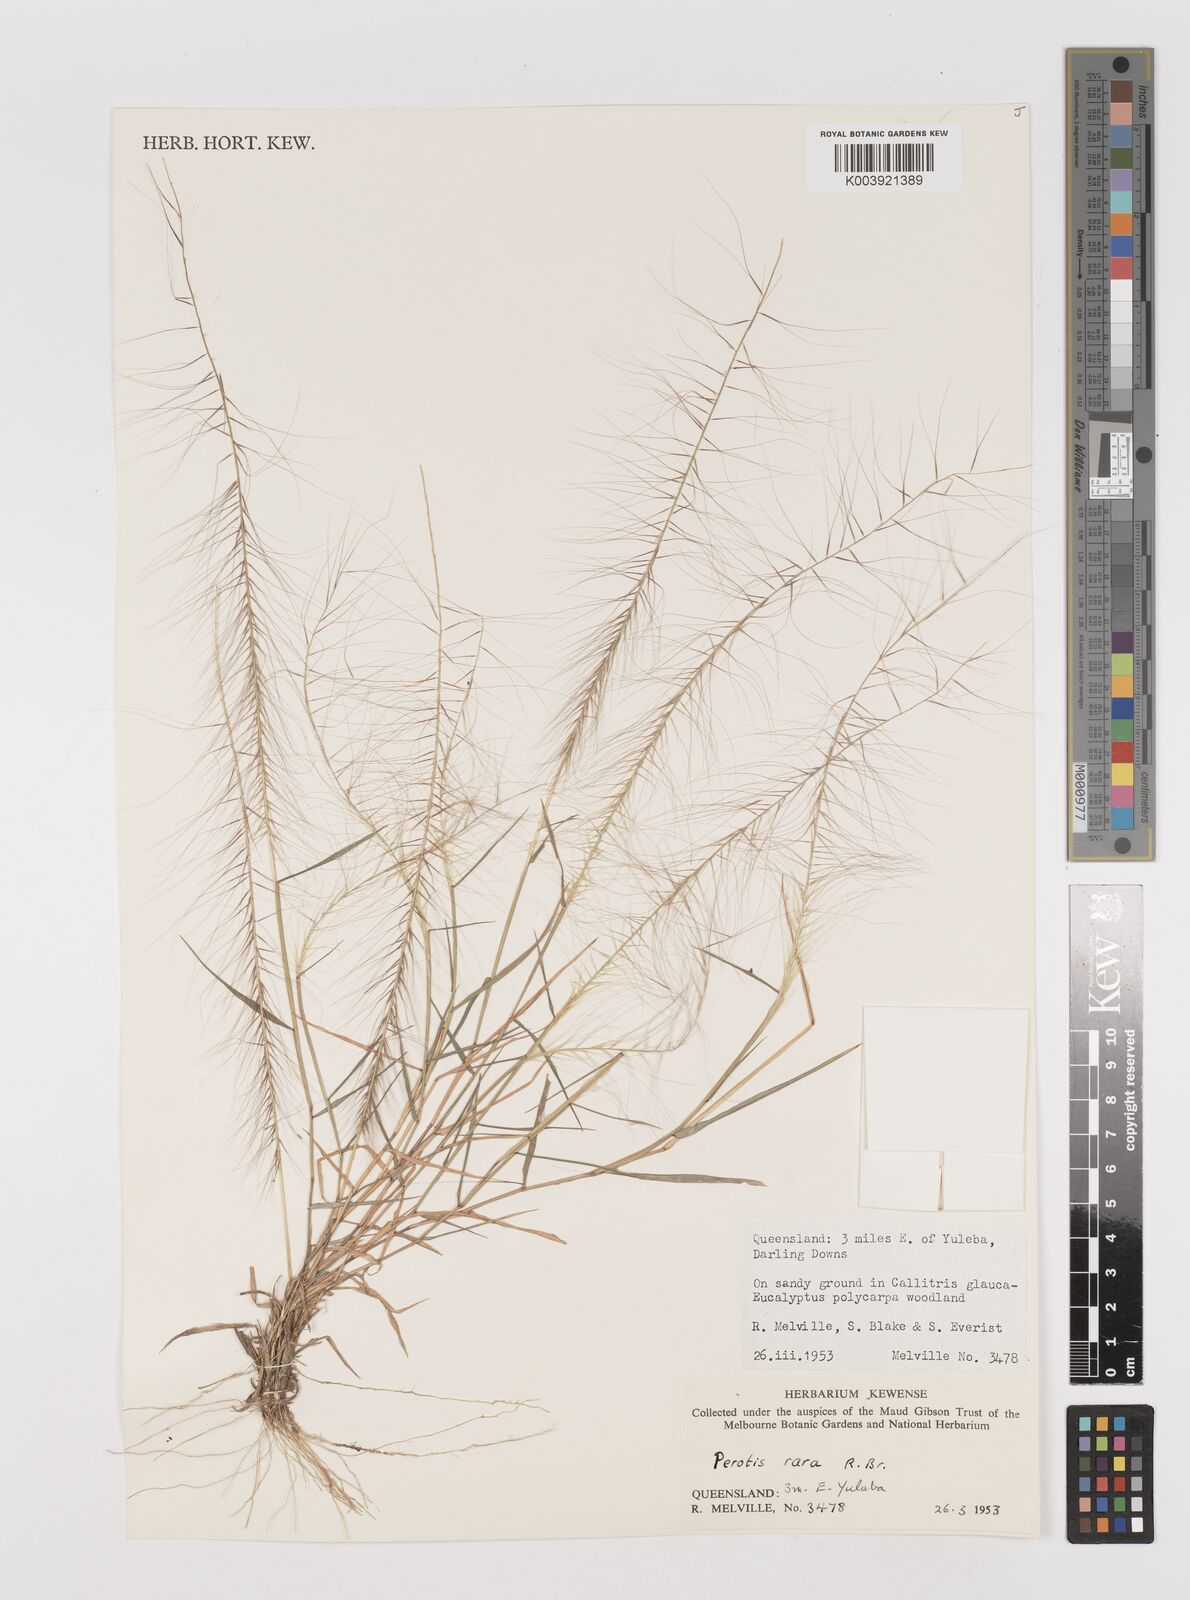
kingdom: Plantae
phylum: Tracheophyta
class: Liliopsida
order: Poales
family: Poaceae
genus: Perotis
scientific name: Perotis rara
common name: Comet grass
